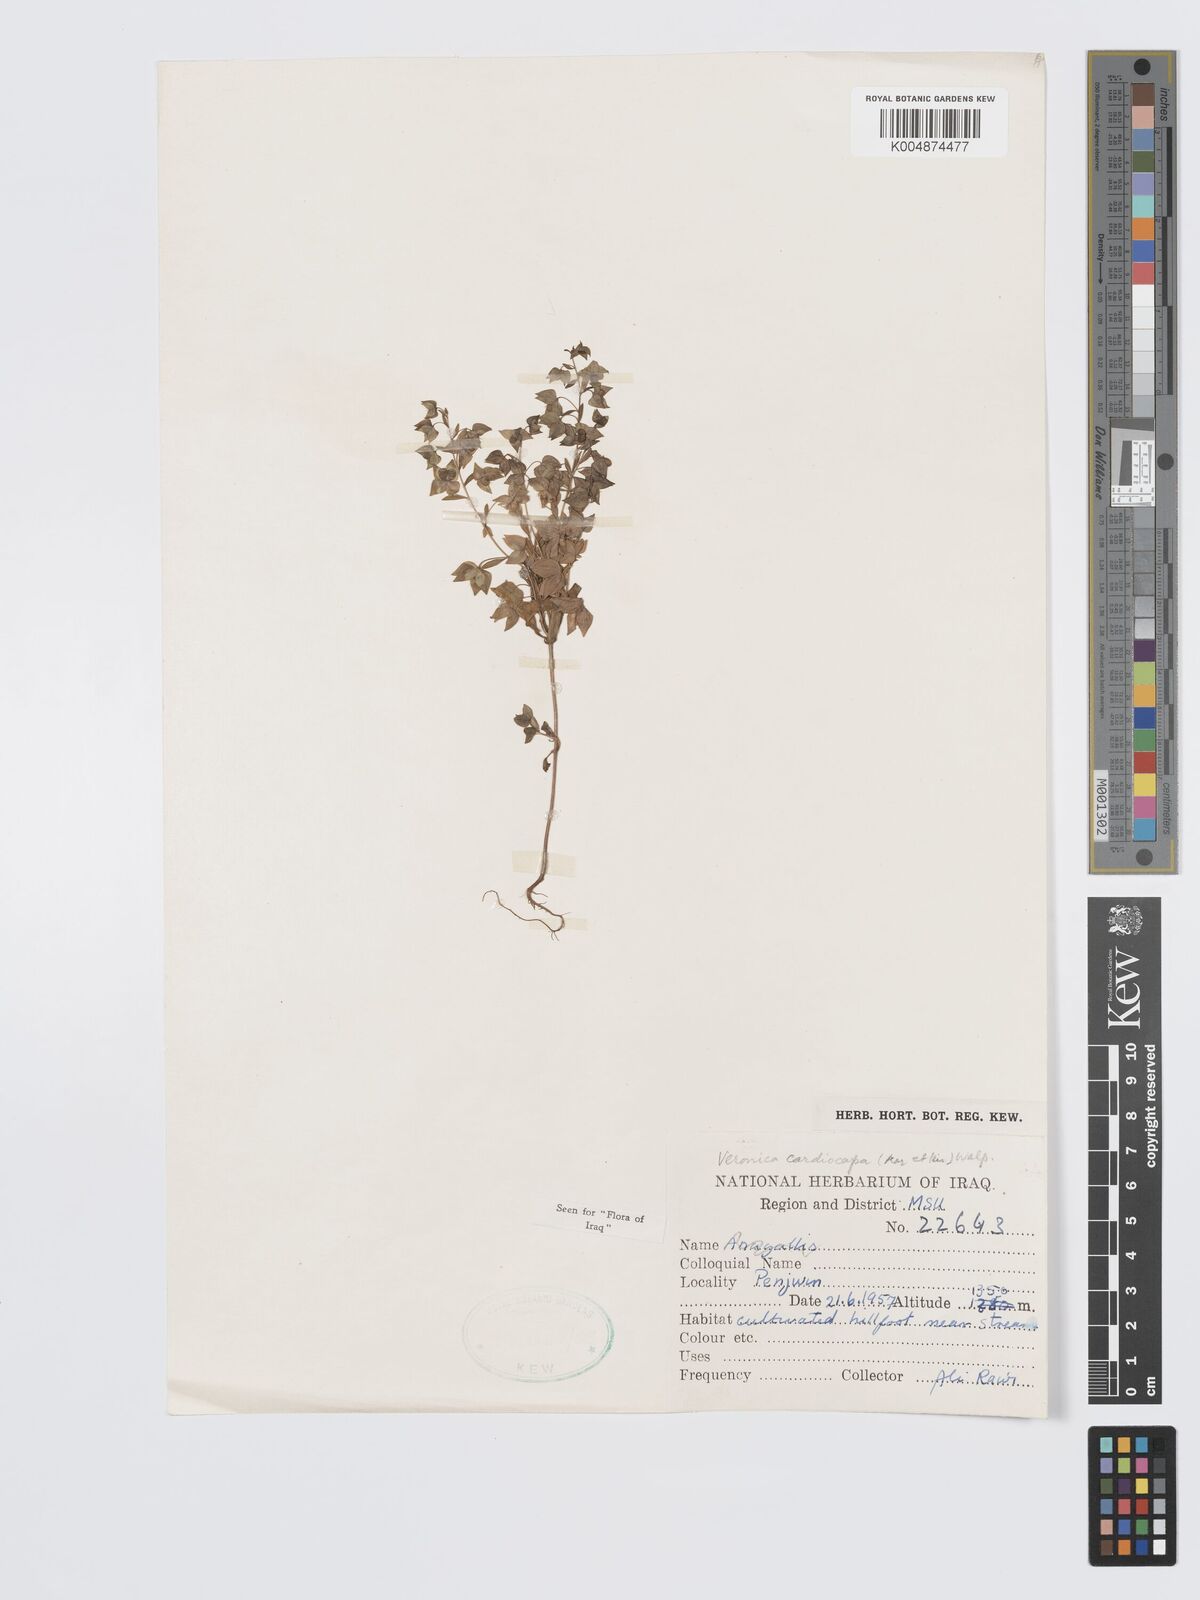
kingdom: Plantae
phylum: Tracheophyta
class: Magnoliopsida
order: Lamiales
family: Plantaginaceae
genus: Veronica
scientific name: Veronica intercedens
